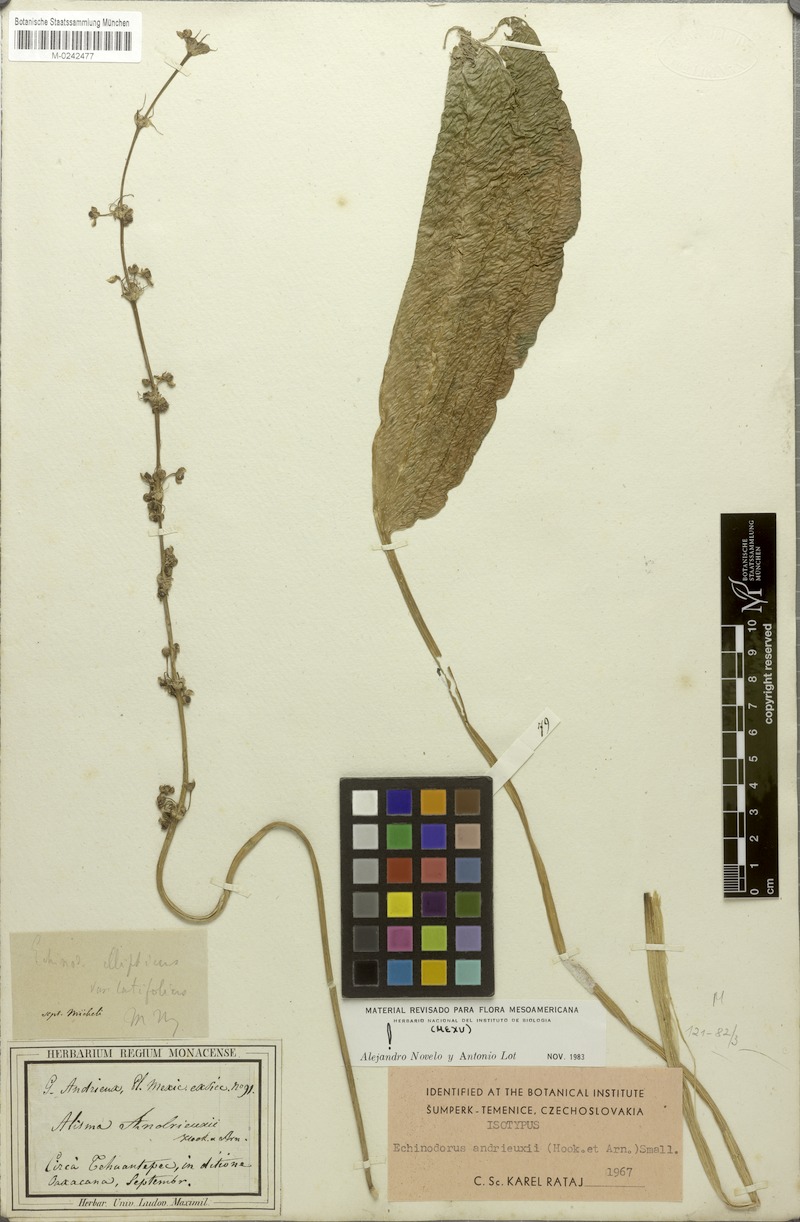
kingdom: Plantae
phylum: Tracheophyta
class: Liliopsida
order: Alismatales
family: Alismataceae
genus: Aquarius
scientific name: Aquarius subulatus
